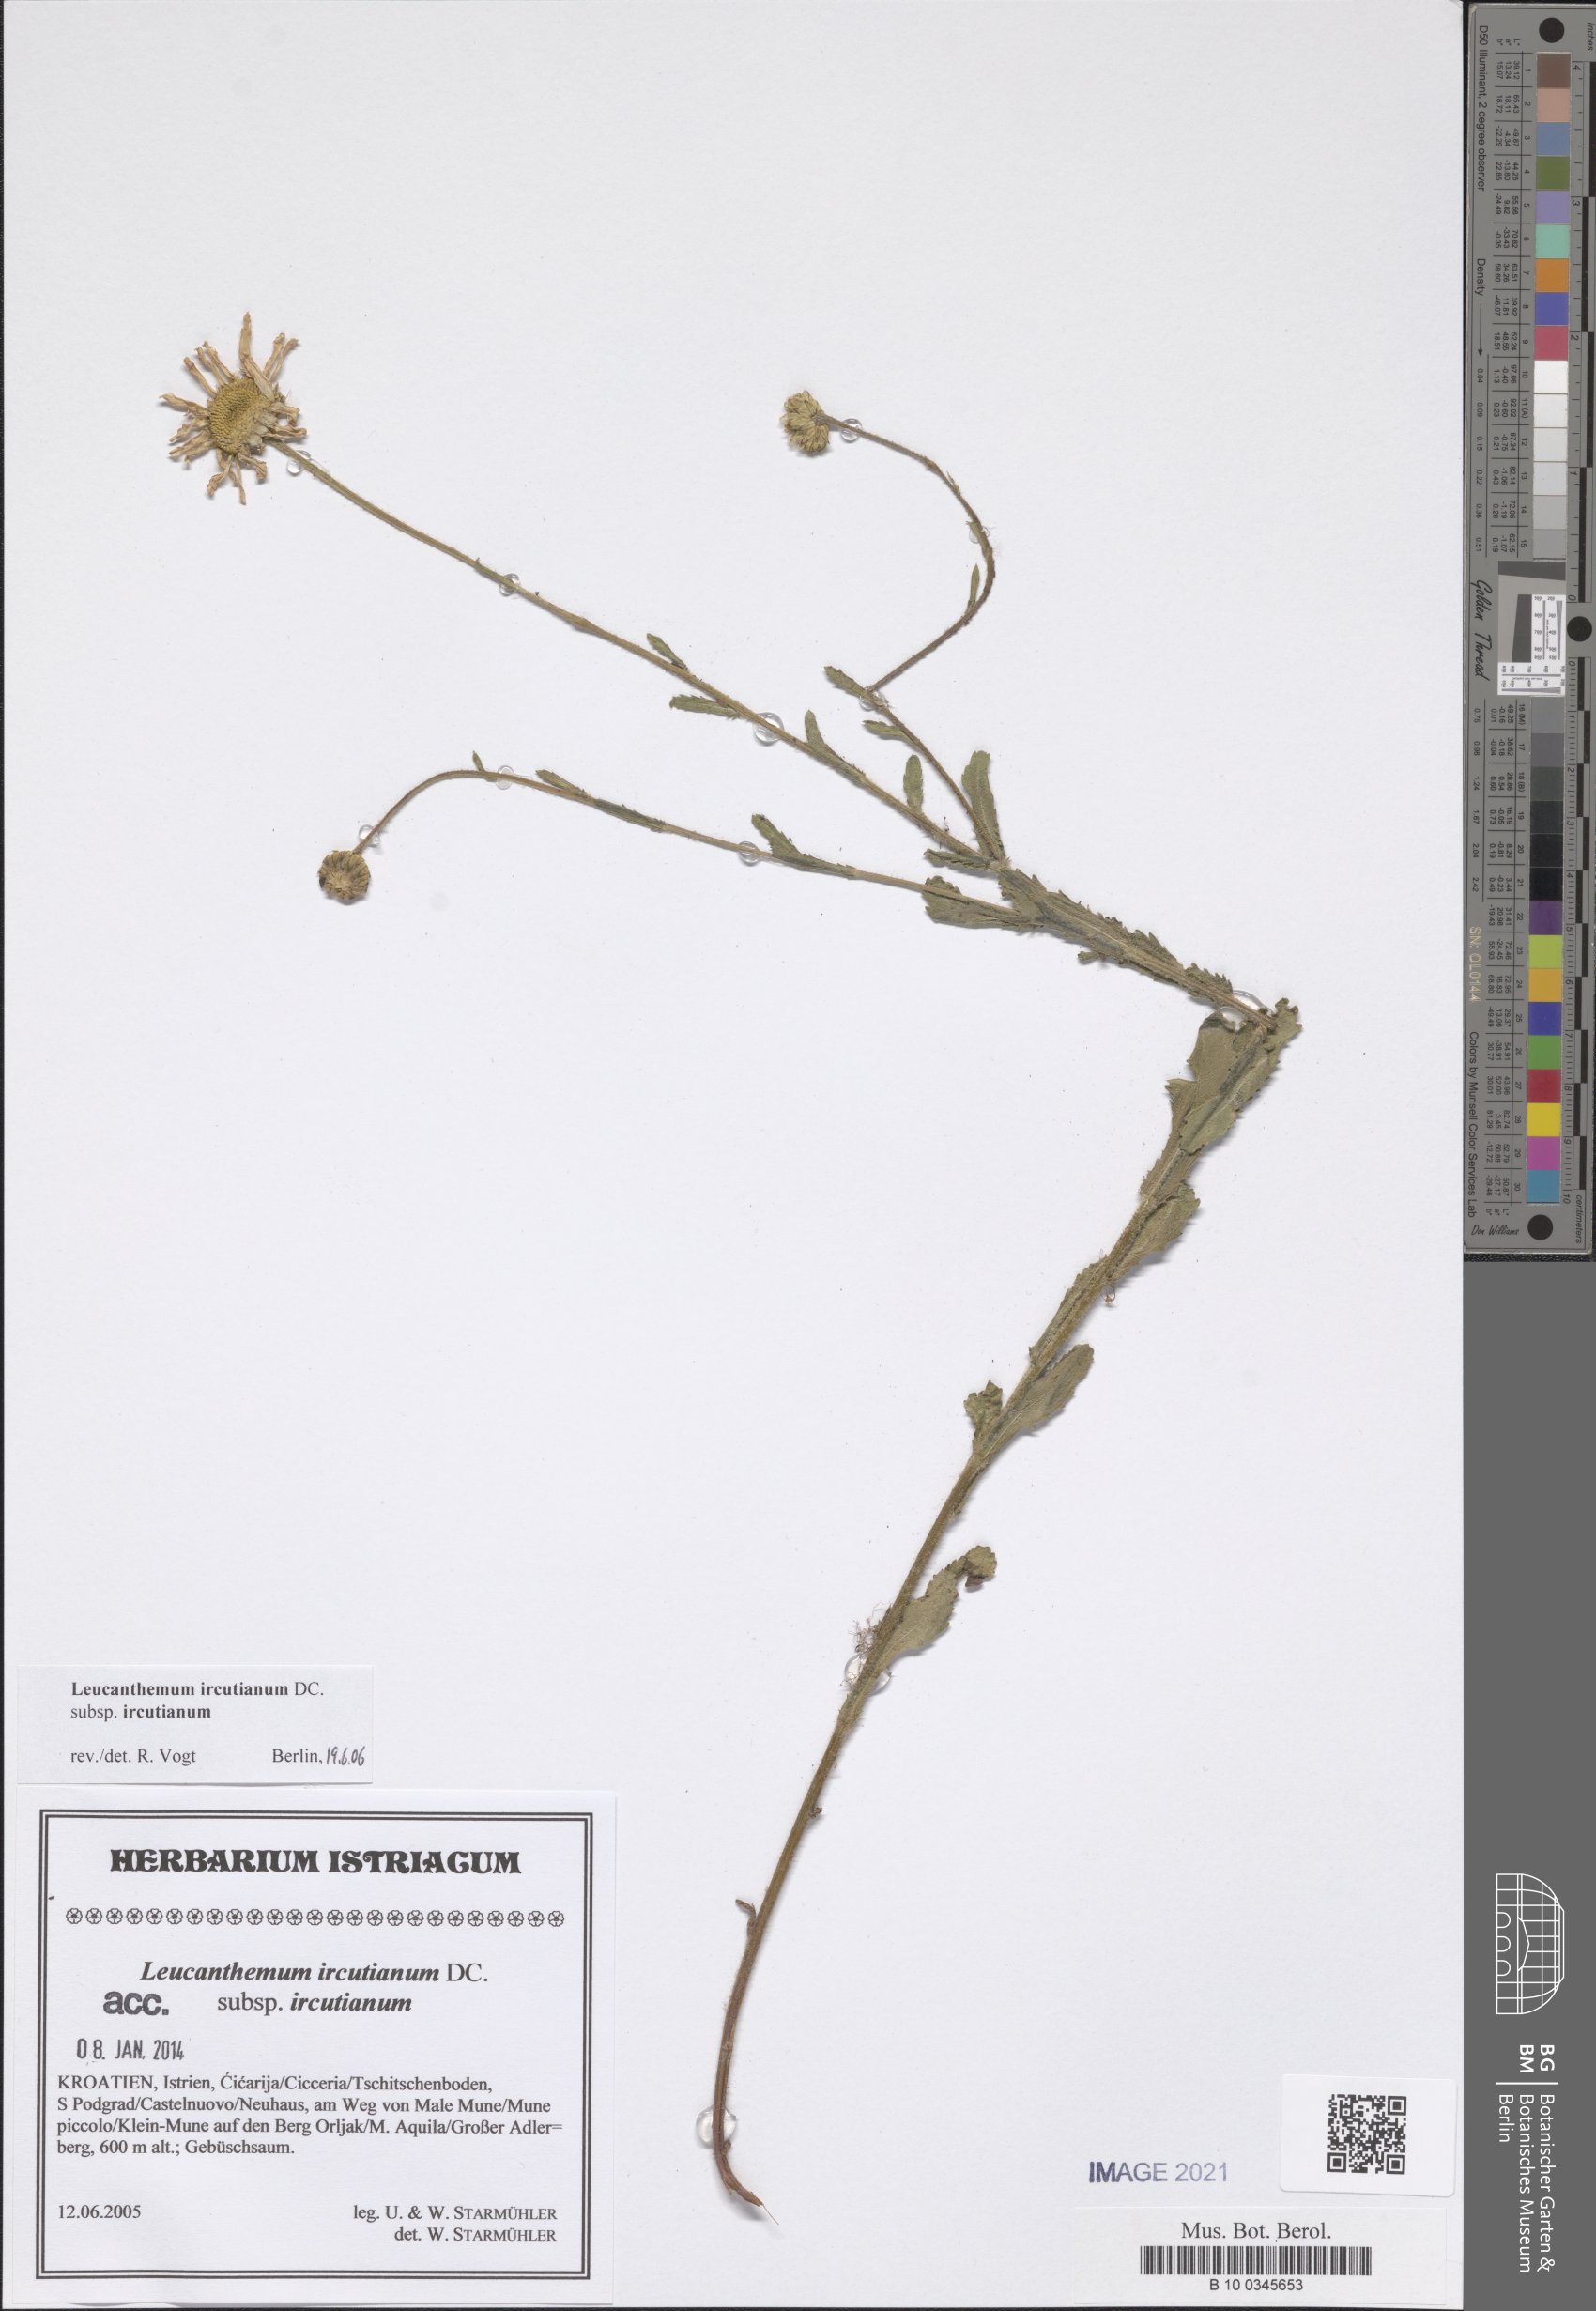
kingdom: Plantae
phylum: Tracheophyta
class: Magnoliopsida
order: Asterales
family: Asteraceae
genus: Leucanthemum
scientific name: Leucanthemum ircutianum
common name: Daisy
